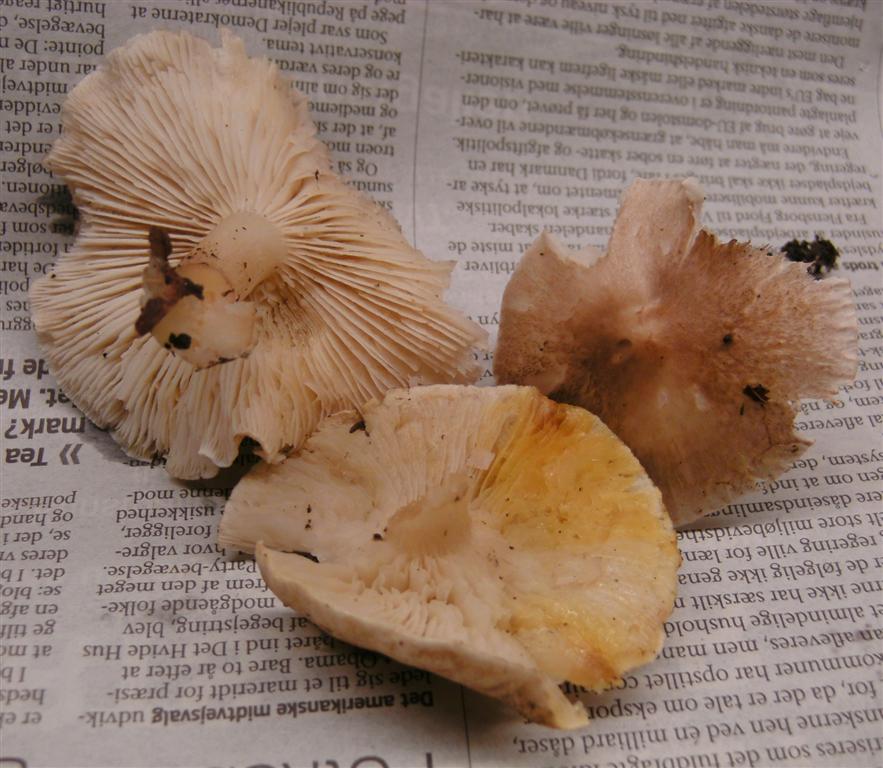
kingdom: Fungi
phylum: Basidiomycota
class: Agaricomycetes
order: Agaricales
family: Tricholomataceae
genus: Tricholoma
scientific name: Tricholoma scalpturatum
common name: gulplettet ridderhat
